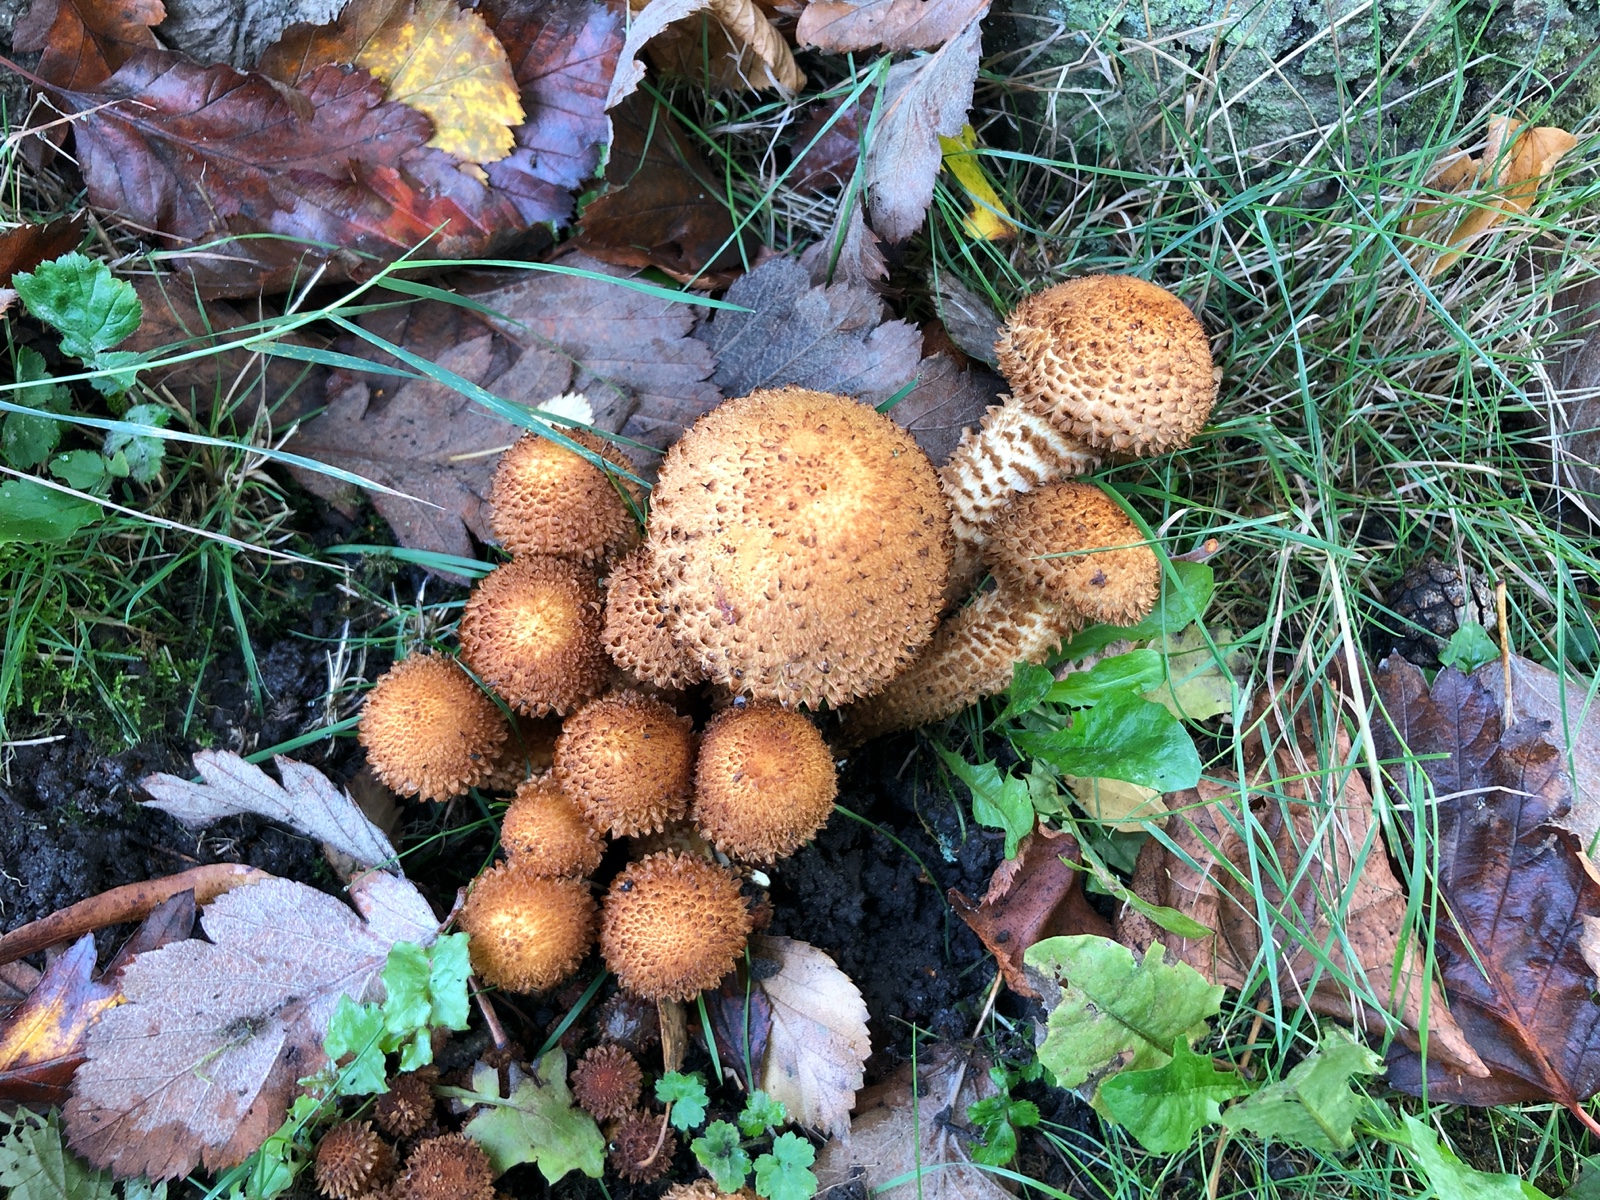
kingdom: Fungi
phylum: Basidiomycota
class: Agaricomycetes
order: Agaricales
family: Strophariaceae
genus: Pholiota
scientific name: Pholiota squarrosa
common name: krumskællet skælhat
